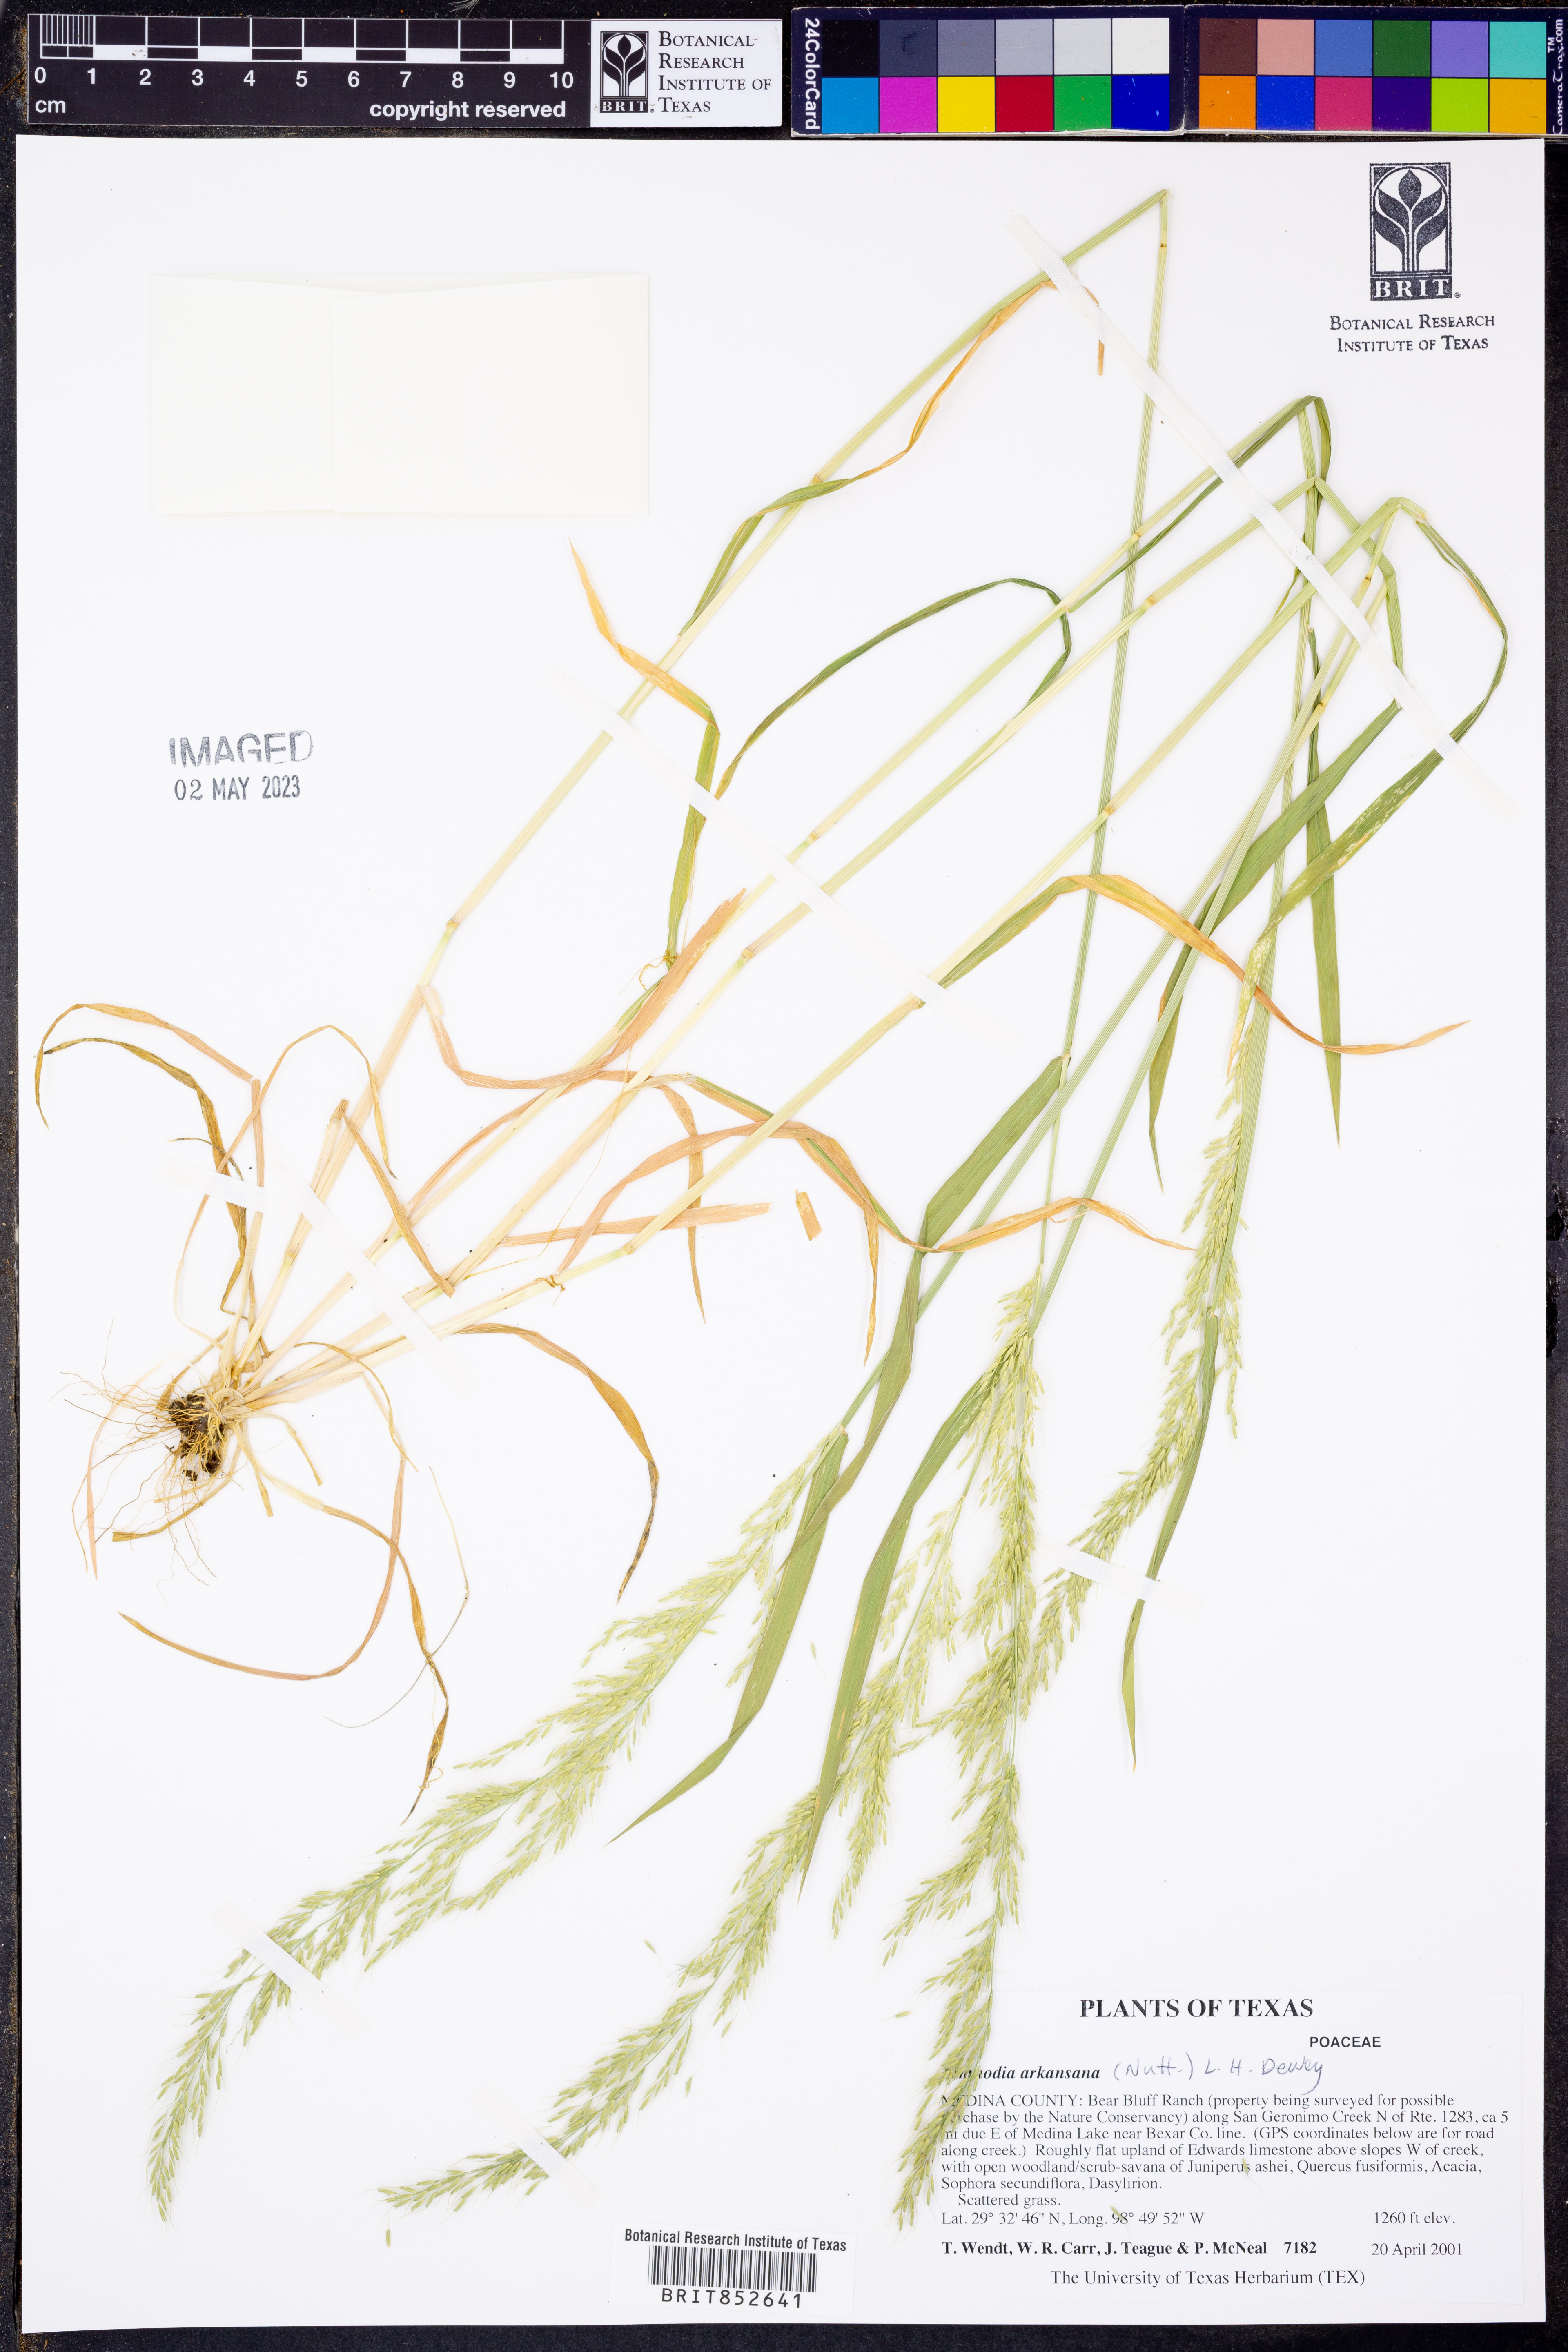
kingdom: Plantae
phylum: Tracheophyta
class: Liliopsida
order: Poales
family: Poaceae
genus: Limnodea
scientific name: Limnodea arkansana
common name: Ozark-grass
